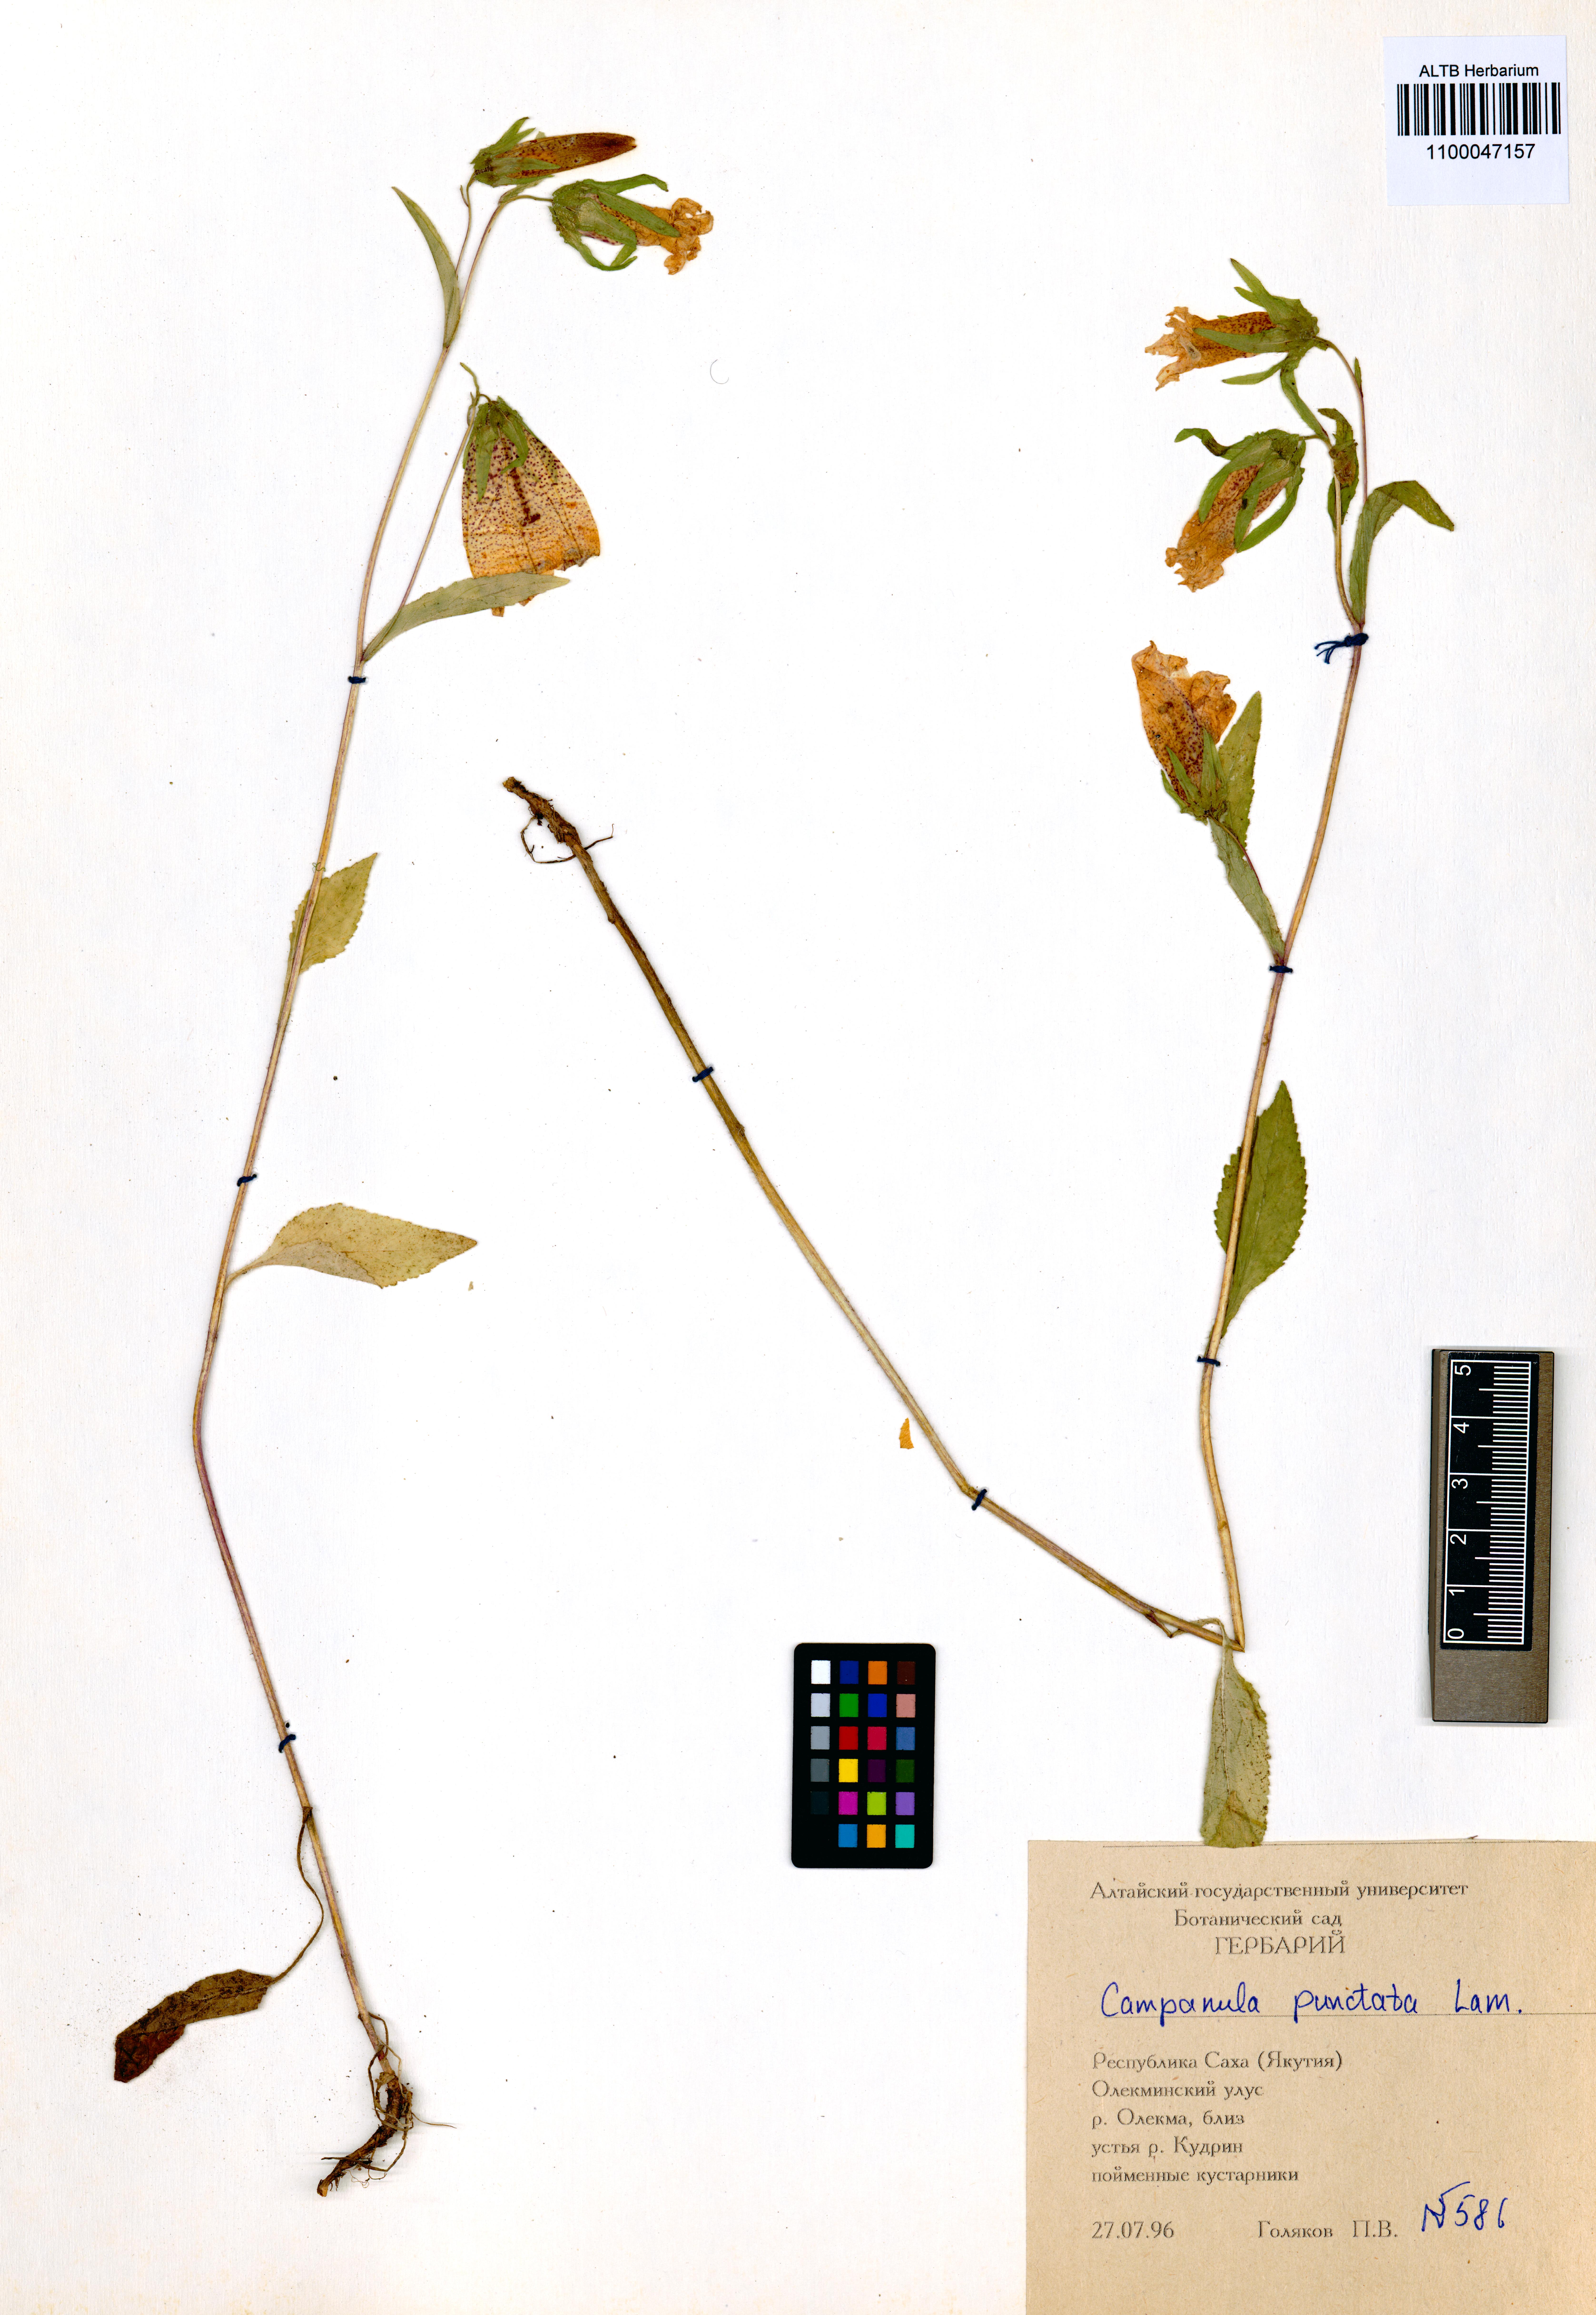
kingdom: Plantae
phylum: Tracheophyta
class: Magnoliopsida
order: Asterales
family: Campanulaceae
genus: Campanula
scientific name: Campanula punctata
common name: Spotted bellflower
